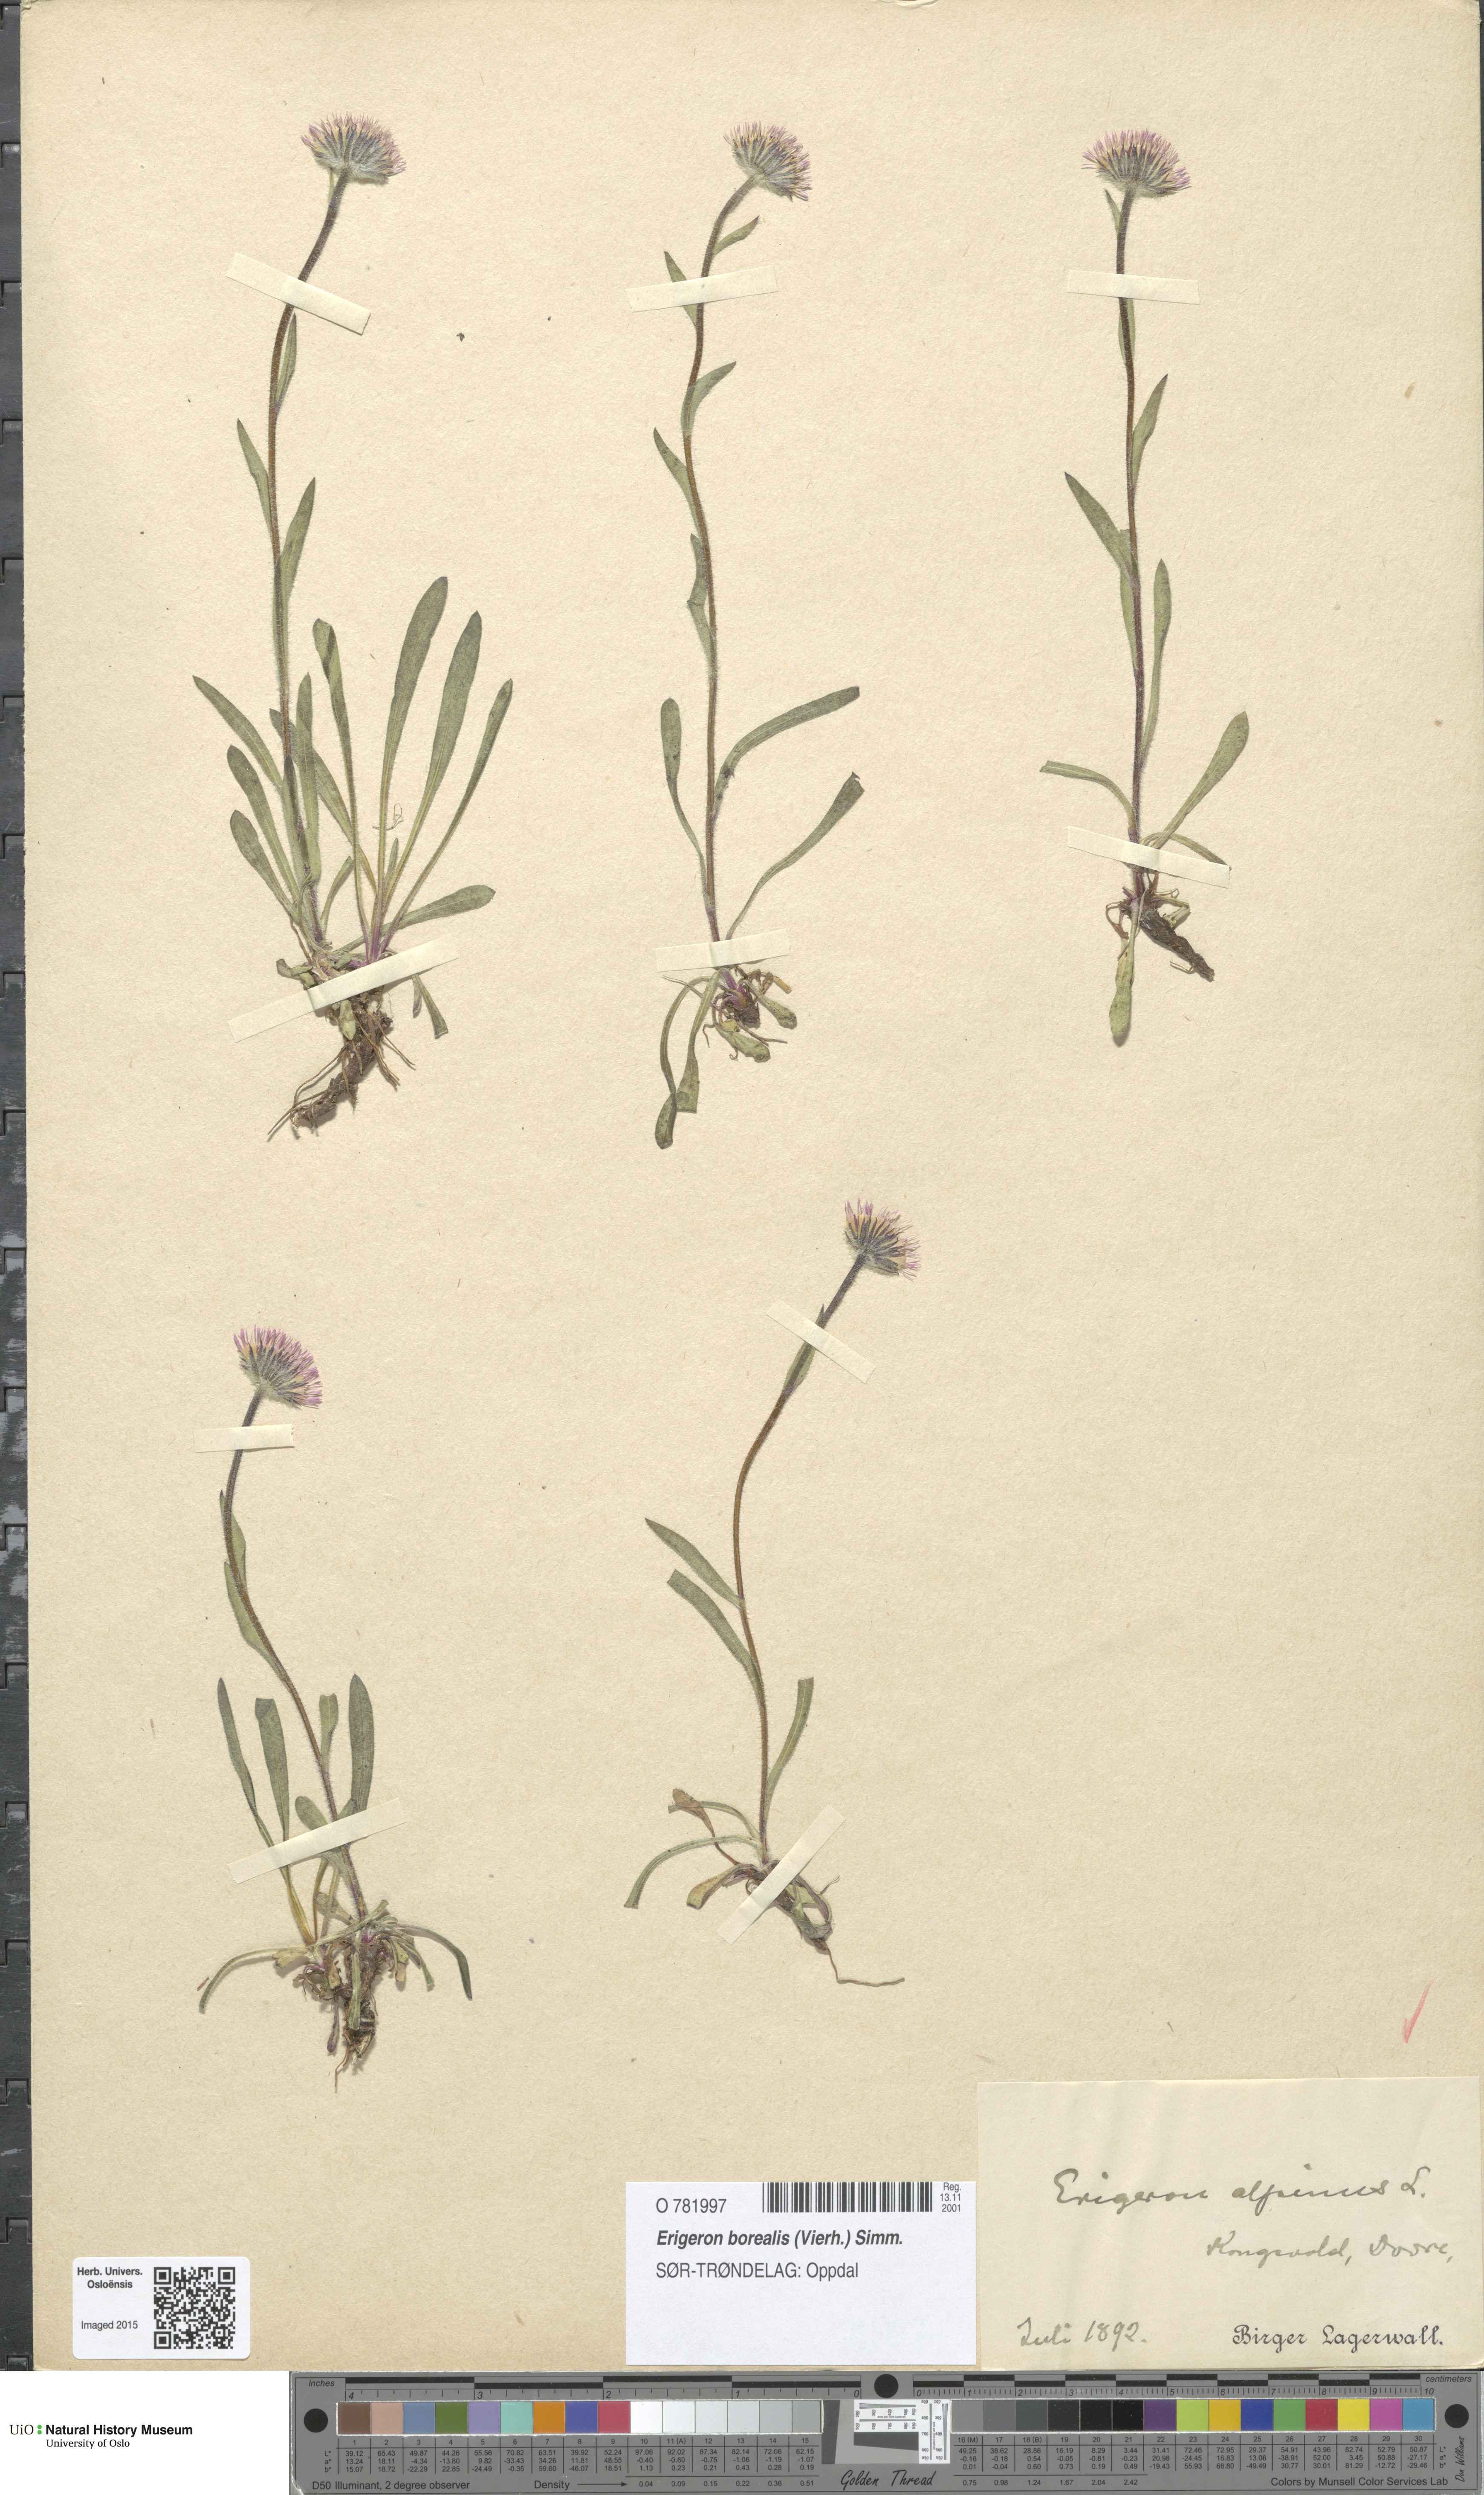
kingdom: Plantae
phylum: Tracheophyta
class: Magnoliopsida
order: Asterales
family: Asteraceae
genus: Erigeron
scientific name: Erigeron borealis
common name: Alpine fleabane
